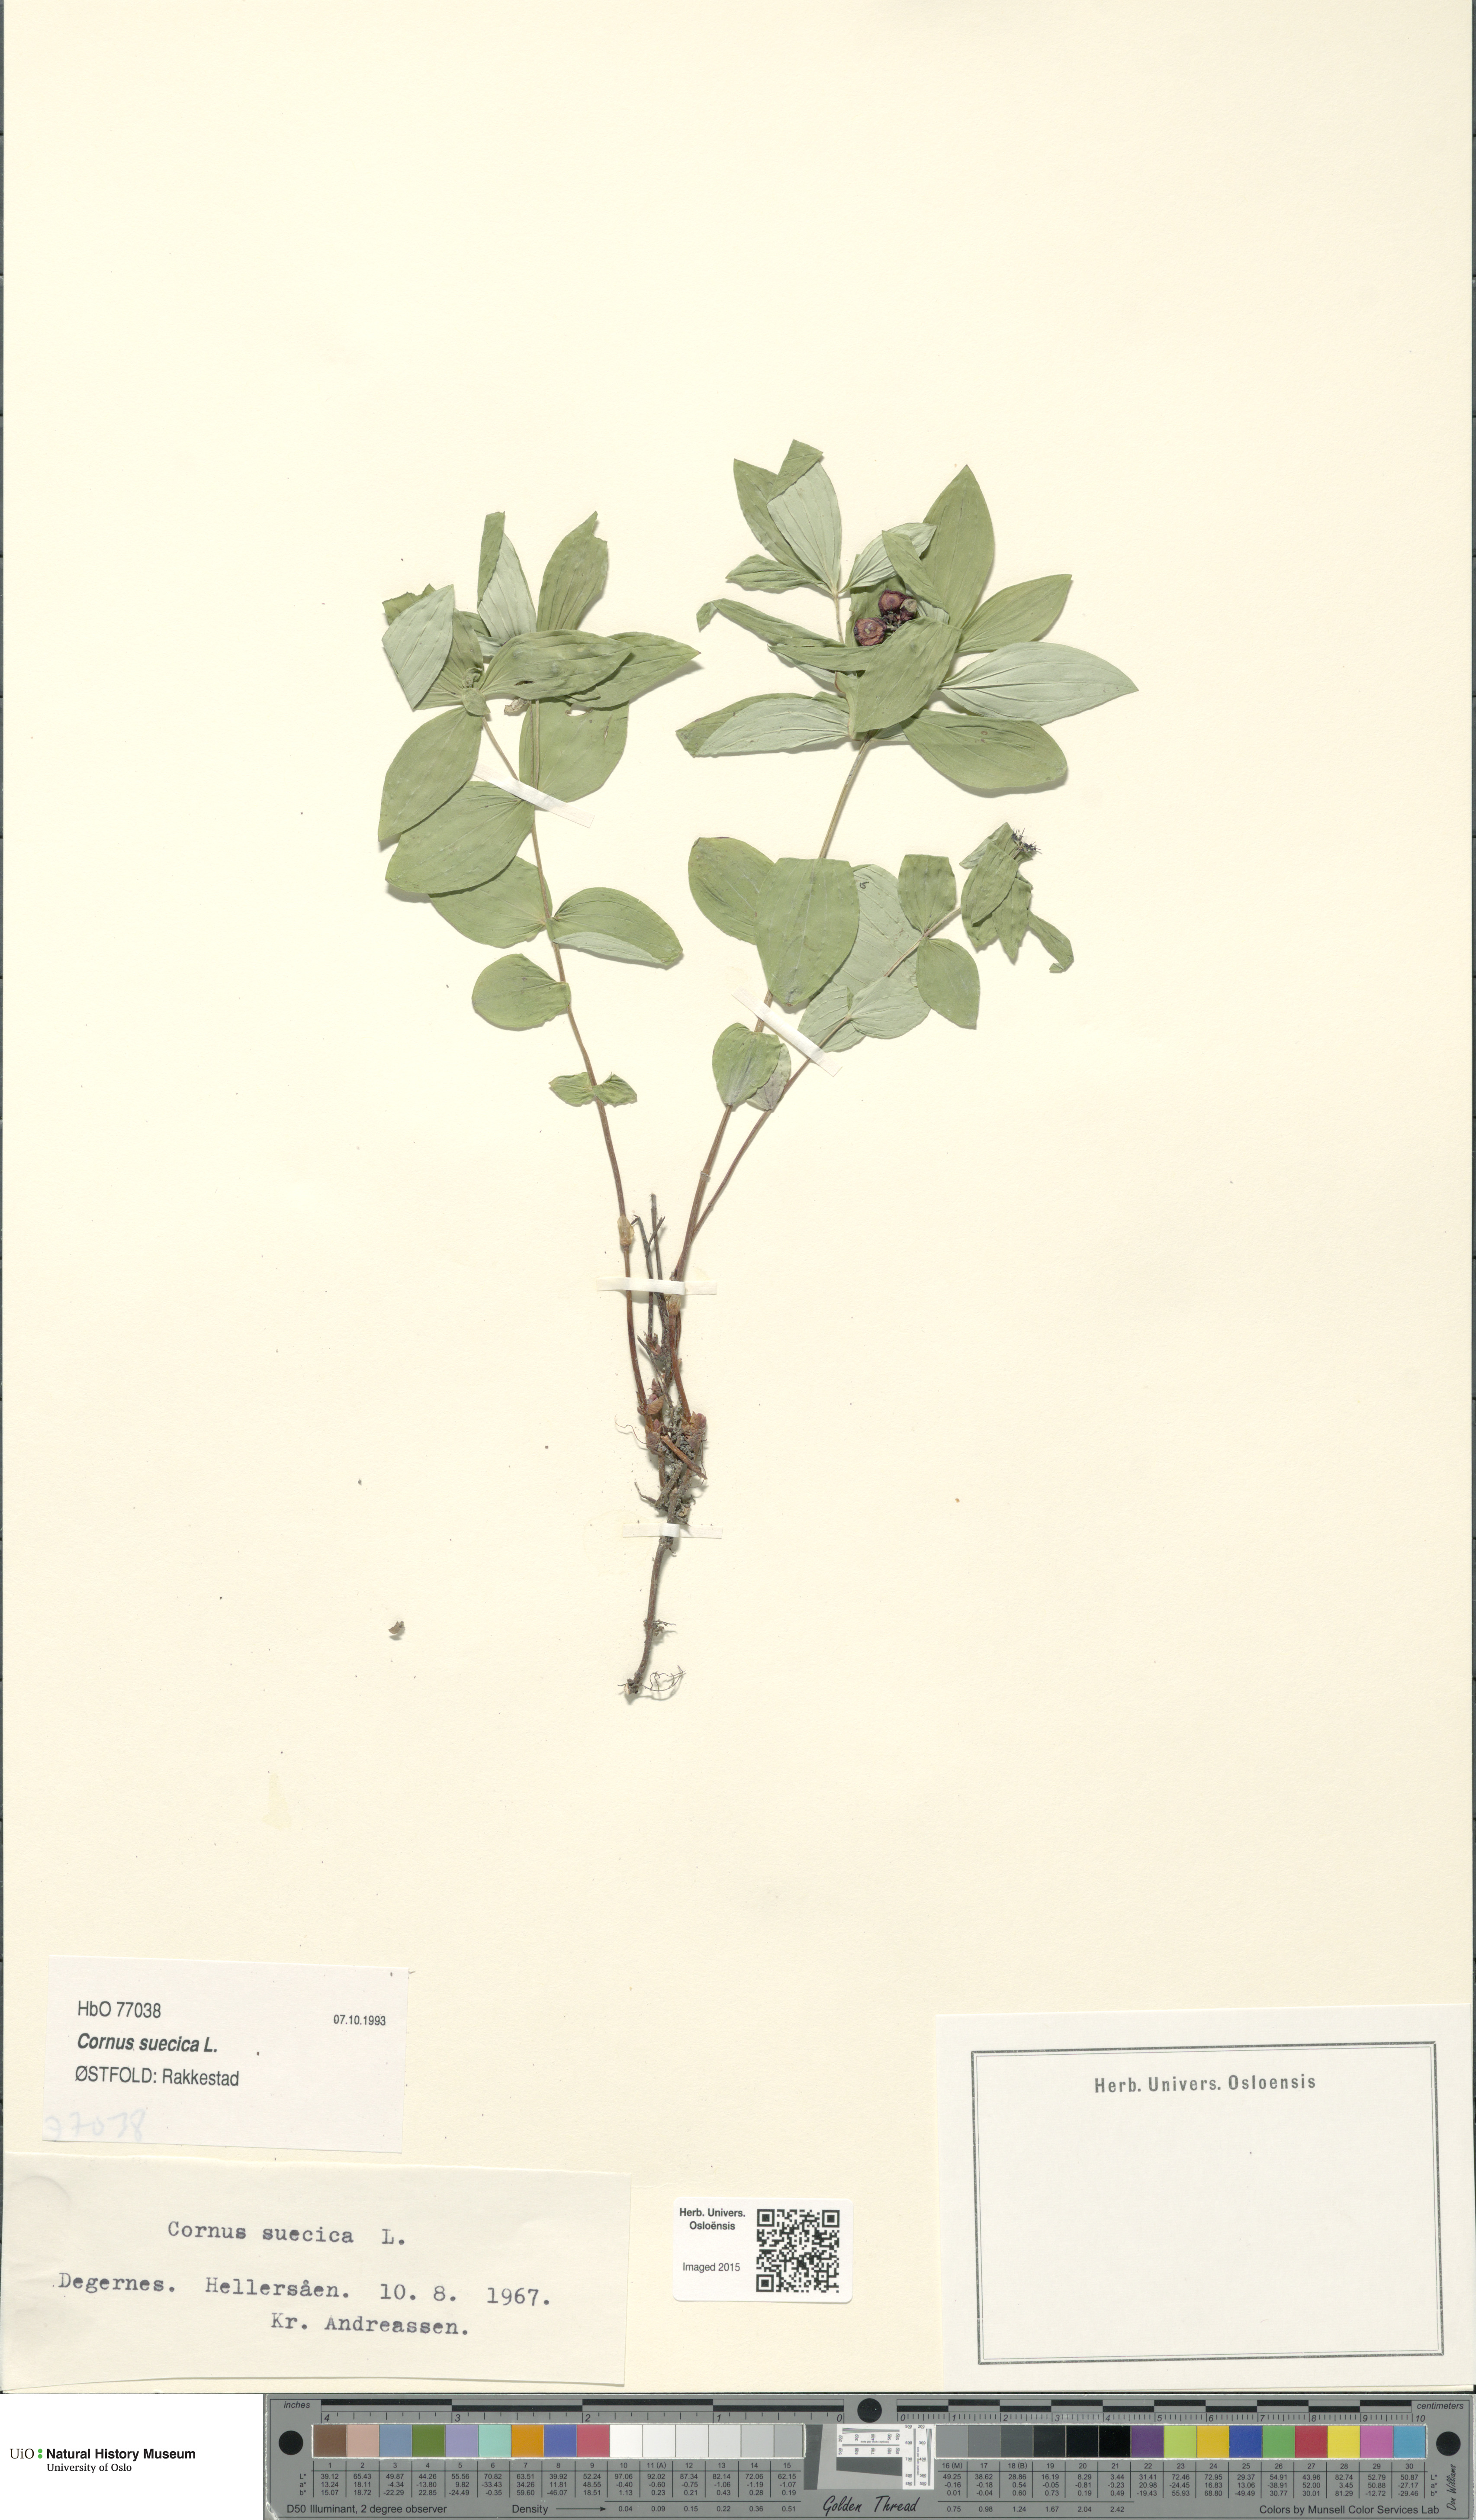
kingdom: Plantae
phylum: Tracheophyta
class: Magnoliopsida
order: Cornales
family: Cornaceae
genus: Cornus
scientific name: Cornus suecica
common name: Dwarf cornel
